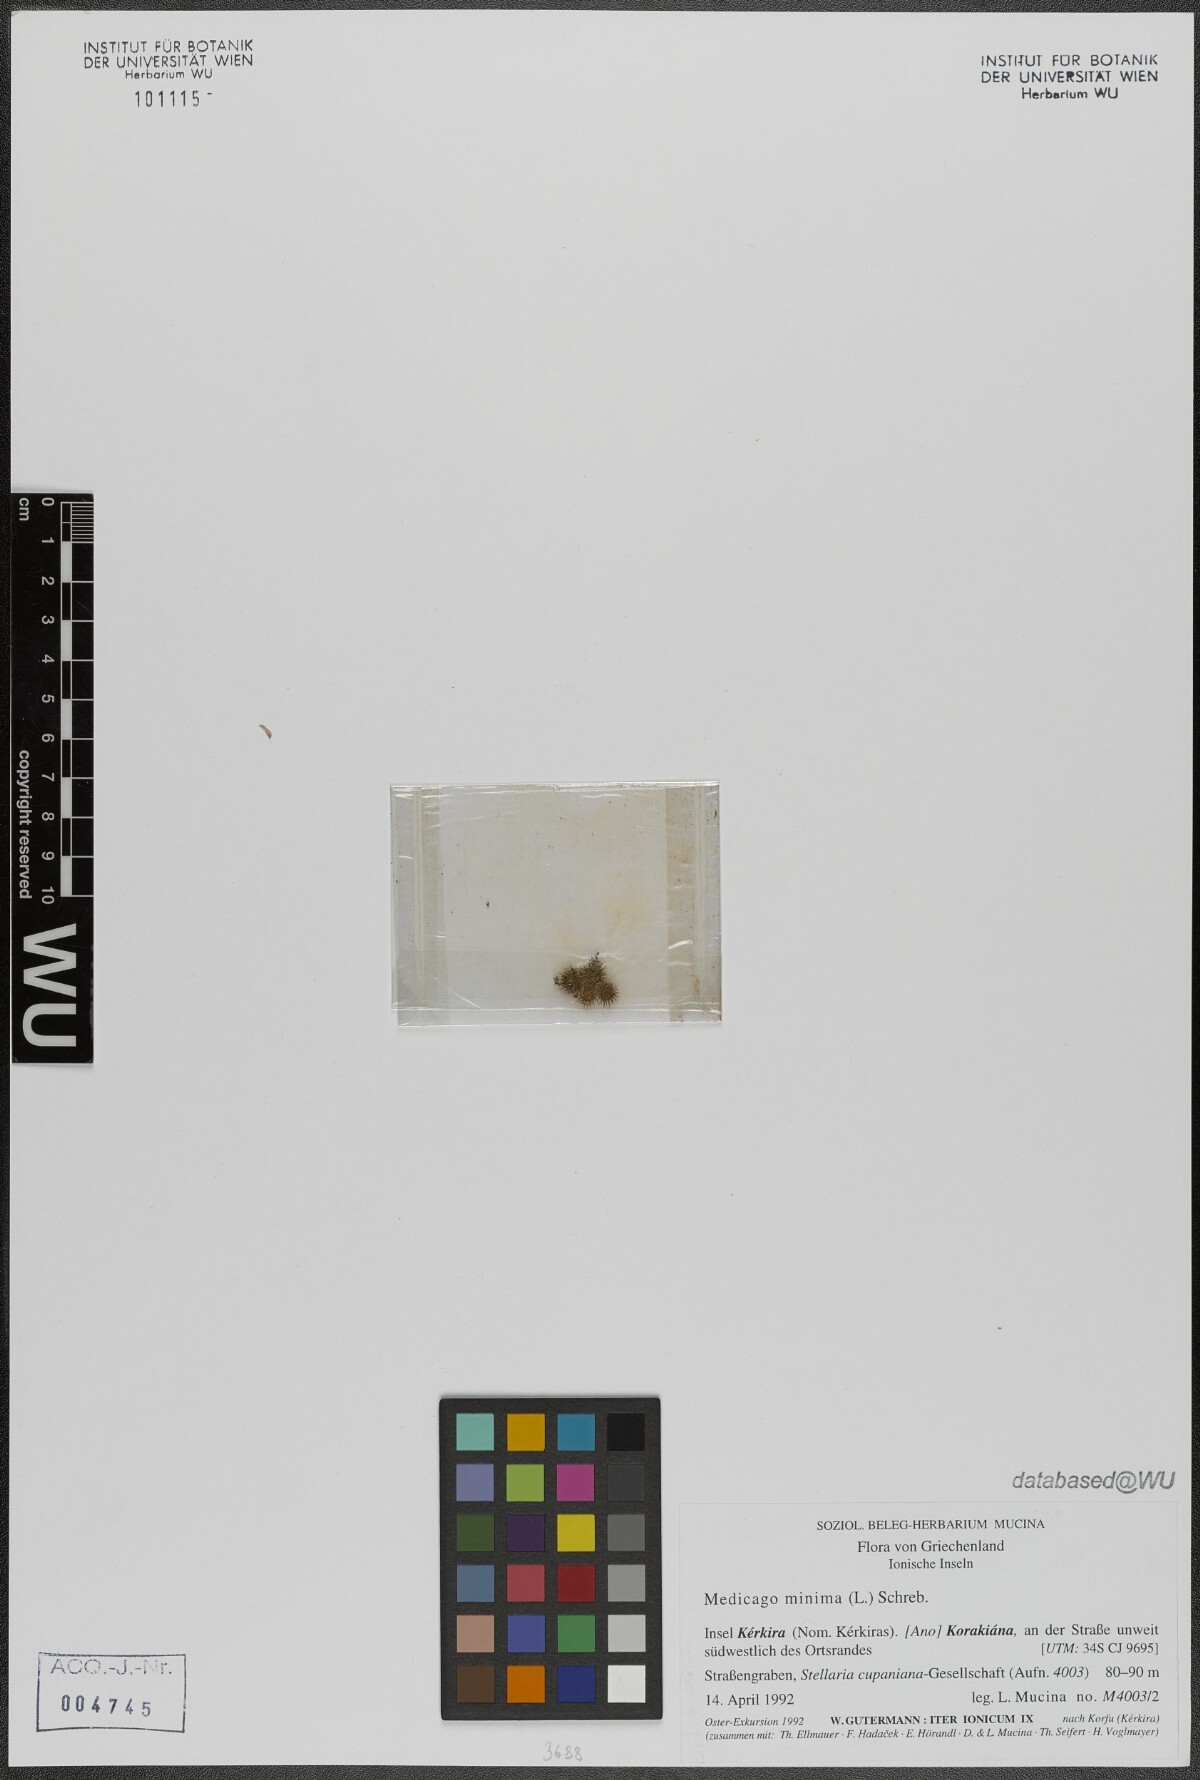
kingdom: Plantae
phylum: Tracheophyta
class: Magnoliopsida
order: Fabales
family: Fabaceae
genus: Medicago
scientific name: Medicago minima
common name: Little bur-clover
